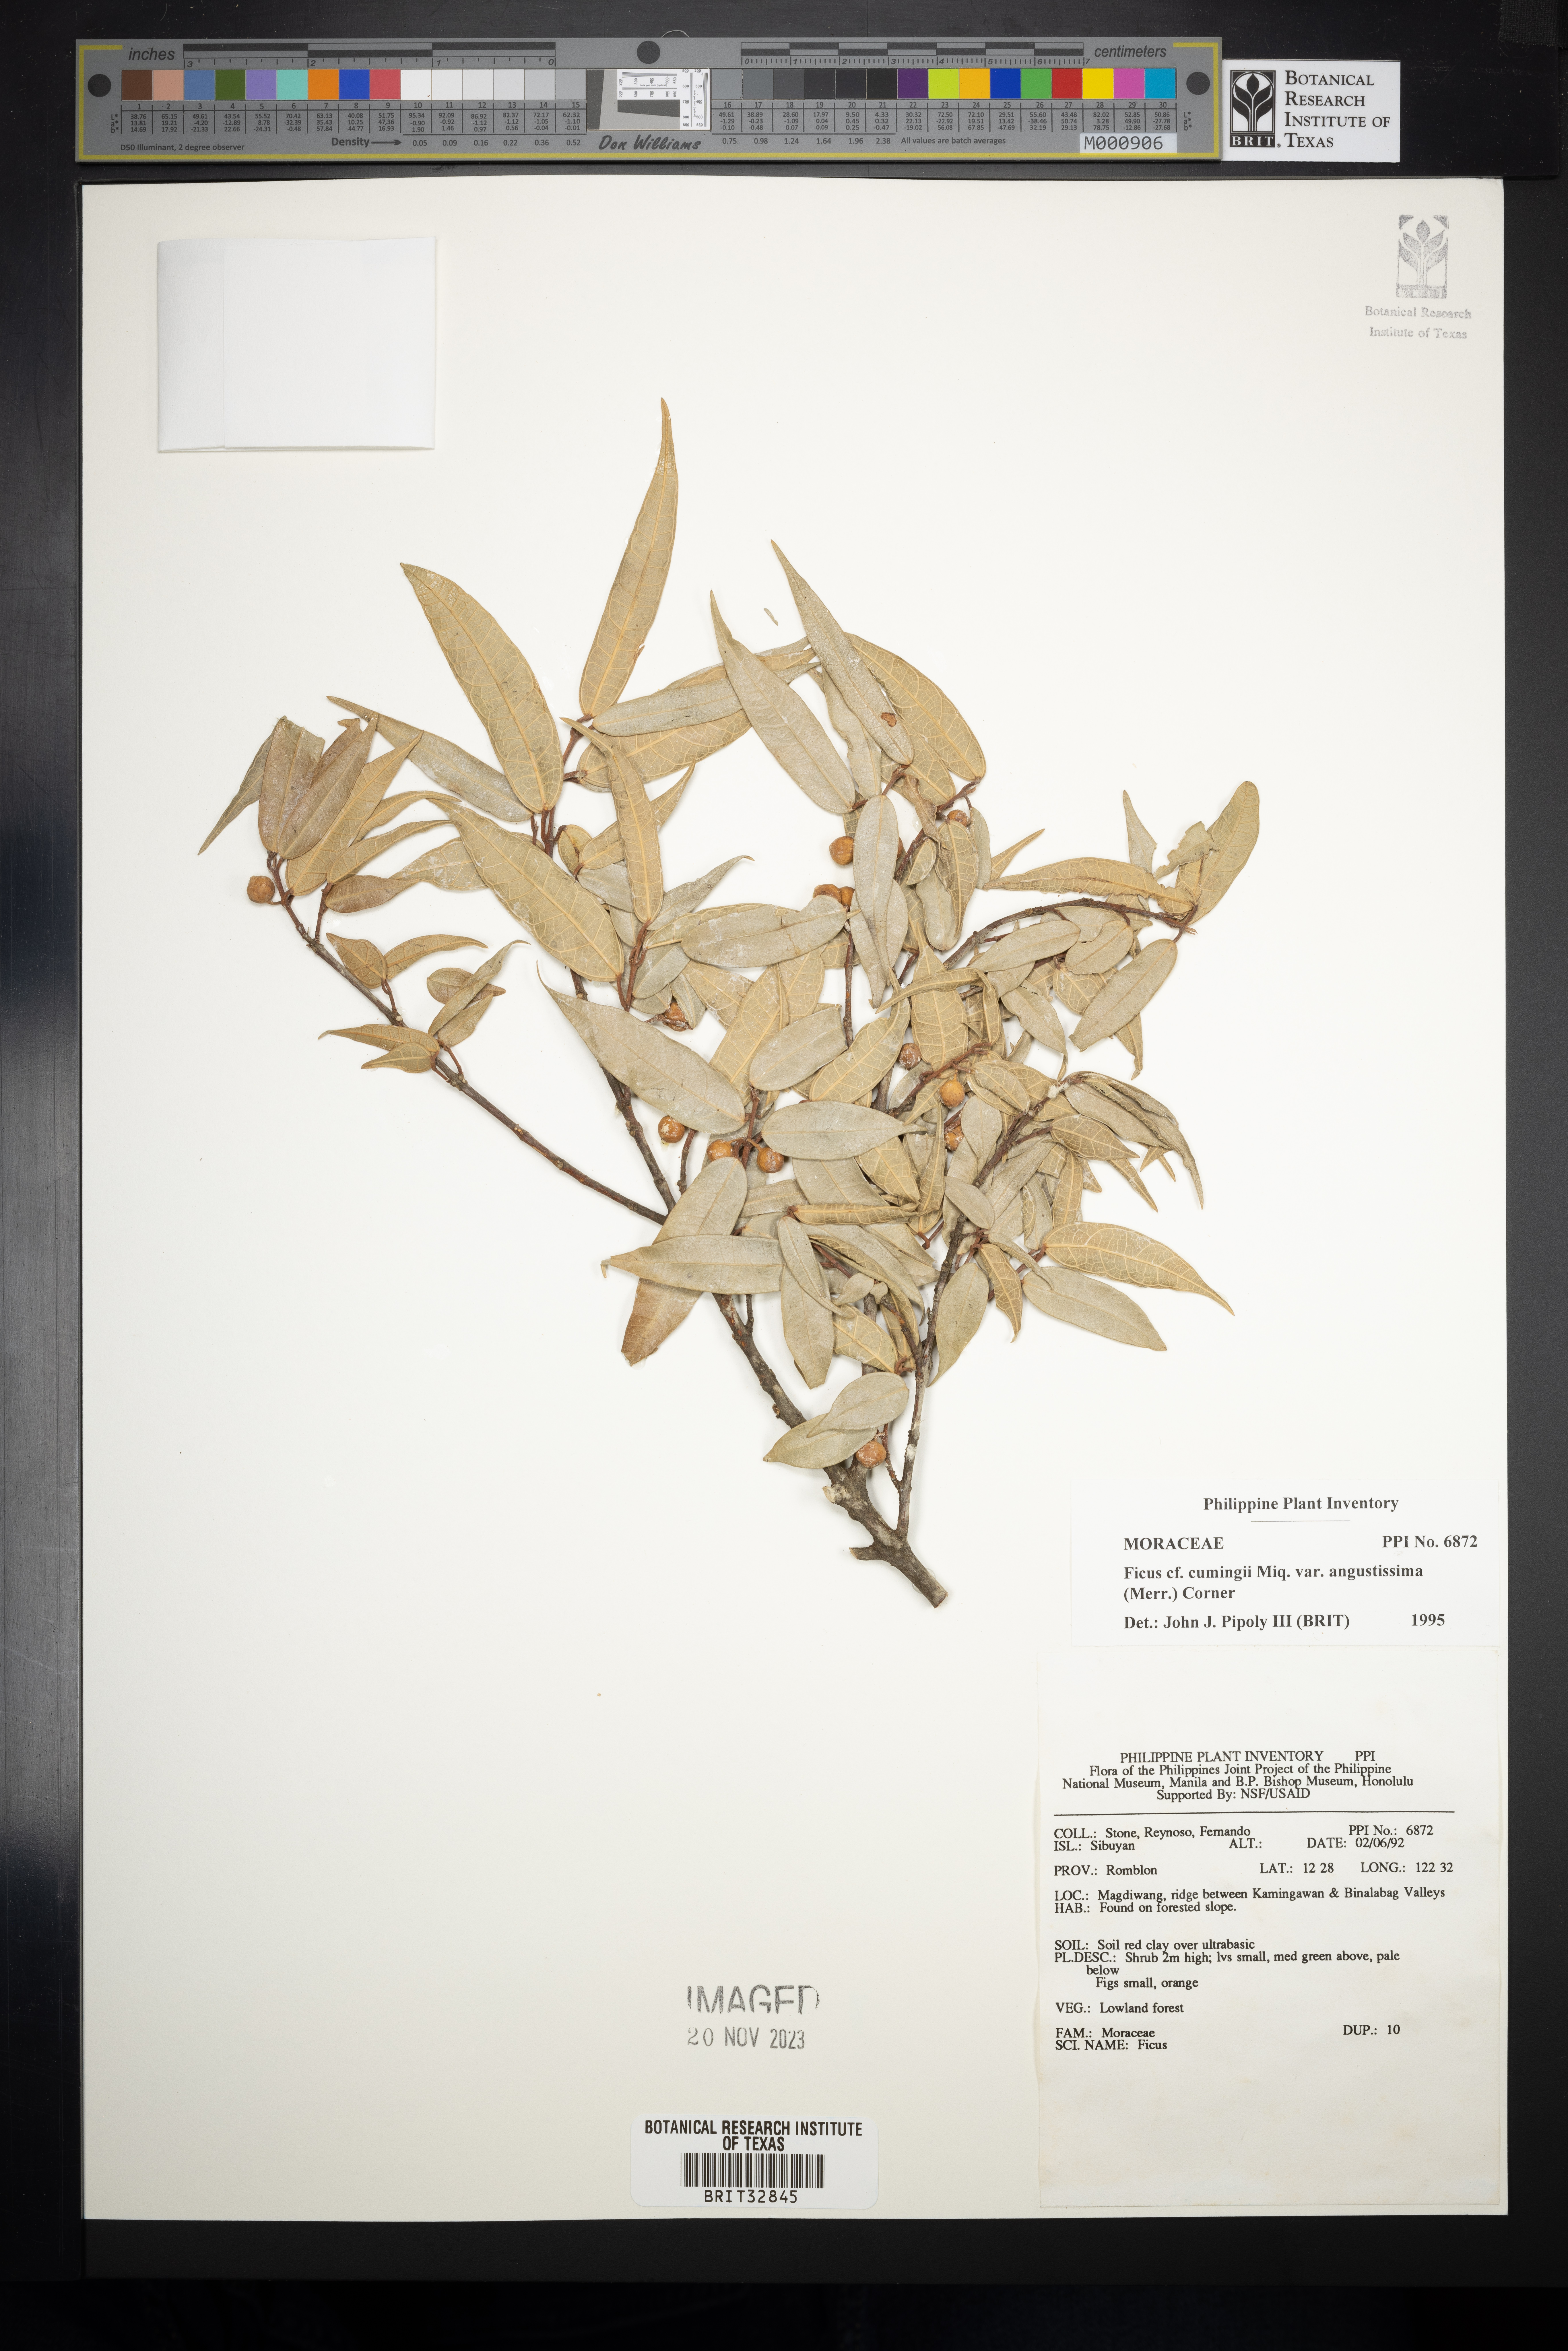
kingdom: Plantae
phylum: Tracheophyta
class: Magnoliopsida
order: Rosales
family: Moraceae
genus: Ficus
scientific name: Ficus cumingii
